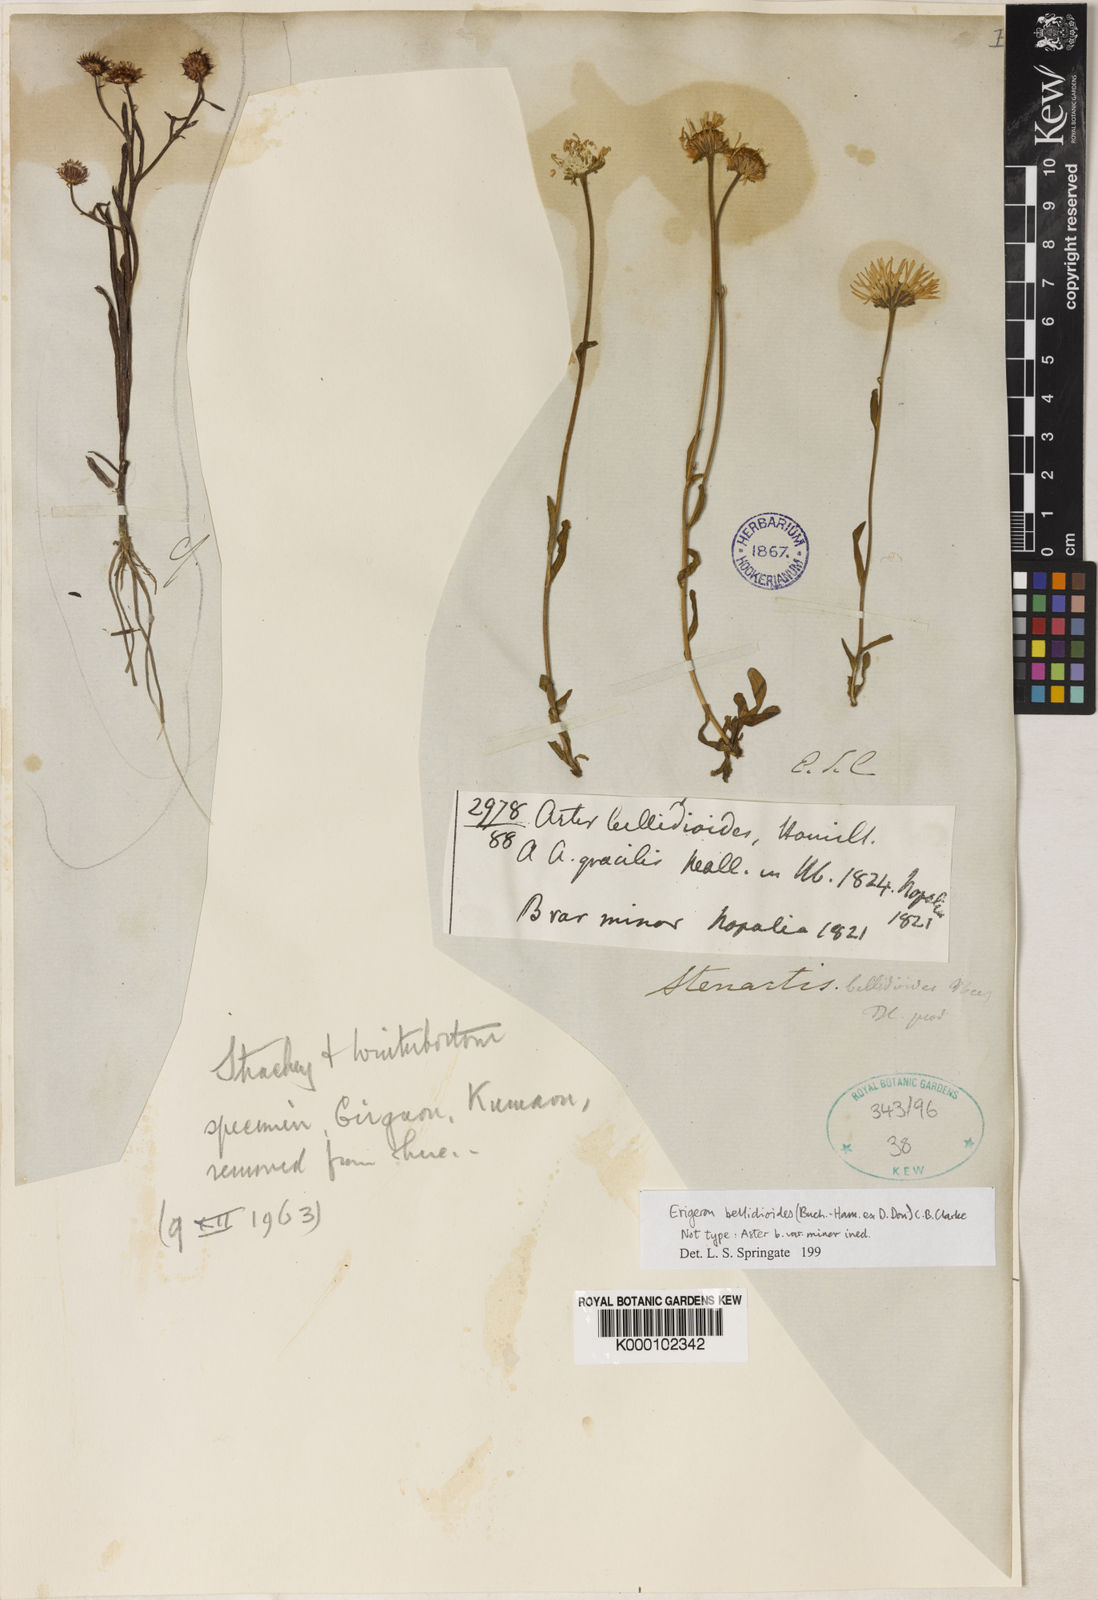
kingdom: Plantae
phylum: Tracheophyta
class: Magnoliopsida
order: Asterales
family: Asteraceae
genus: Erigeron
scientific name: Erigeron emodi
